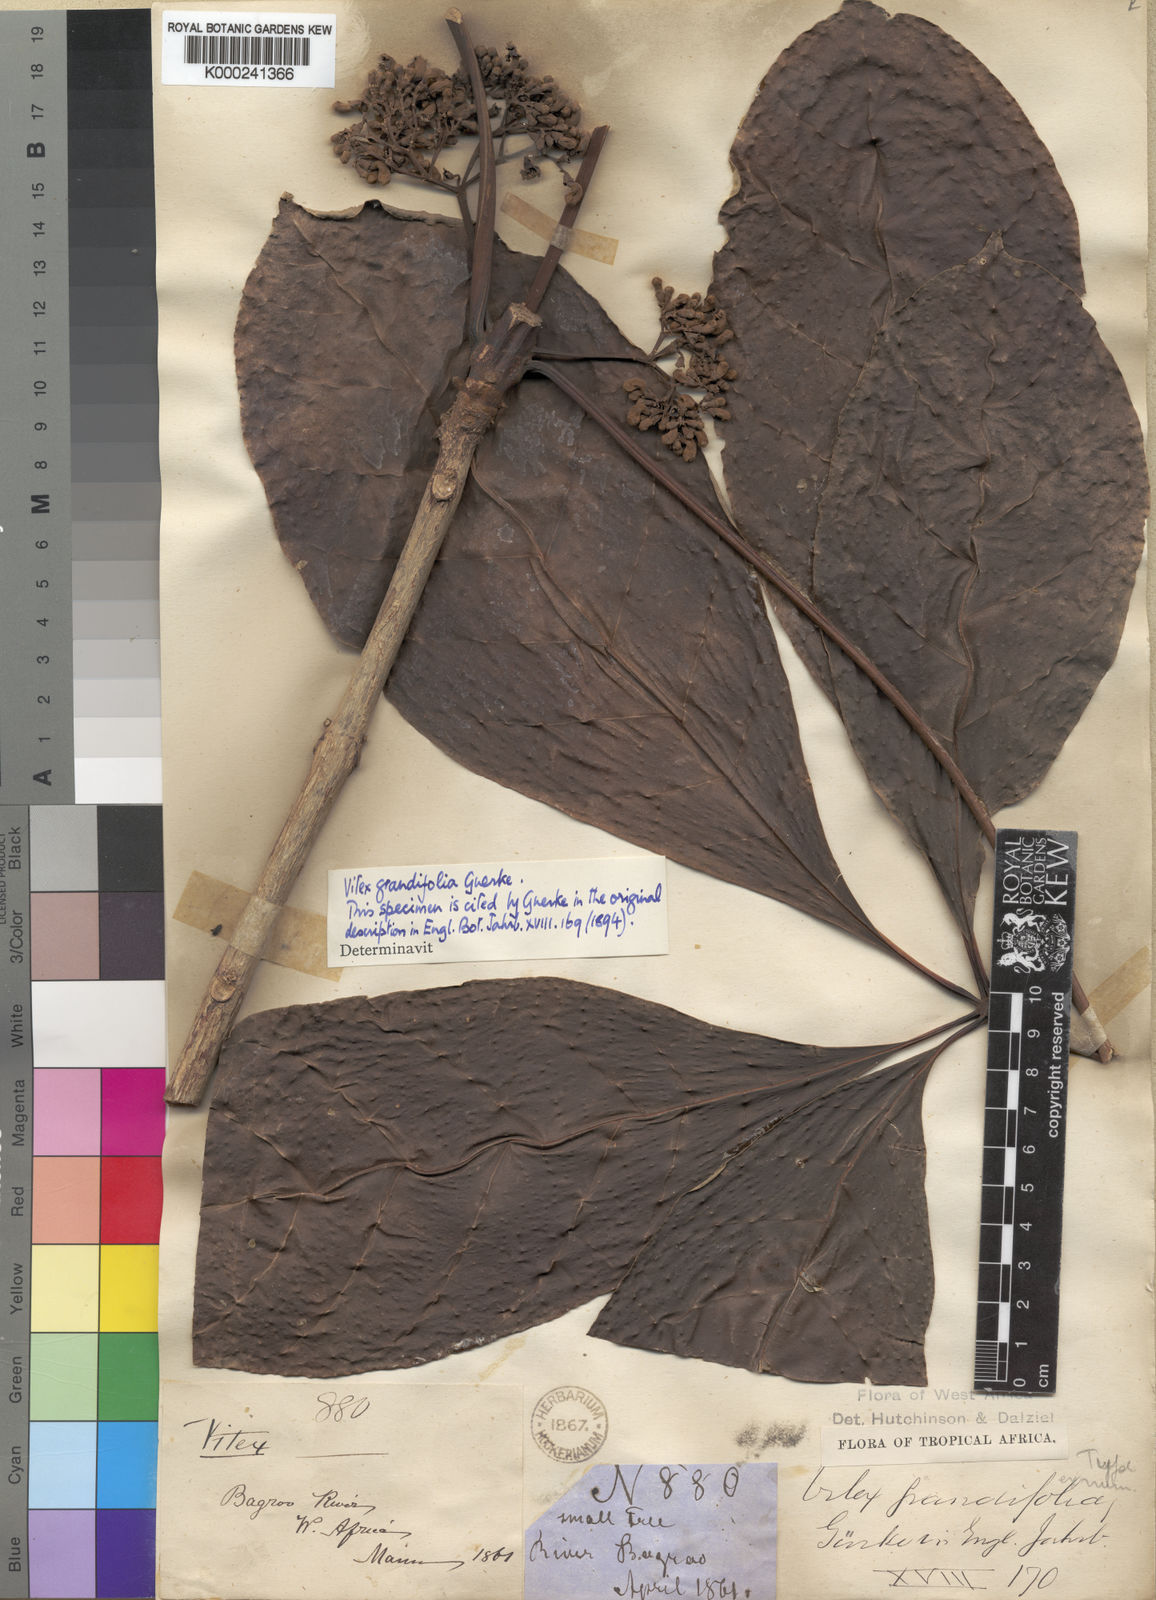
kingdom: Plantae
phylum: Tracheophyta
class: Magnoliopsida
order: Lamiales
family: Lamiaceae
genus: Vitex
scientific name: Vitex
